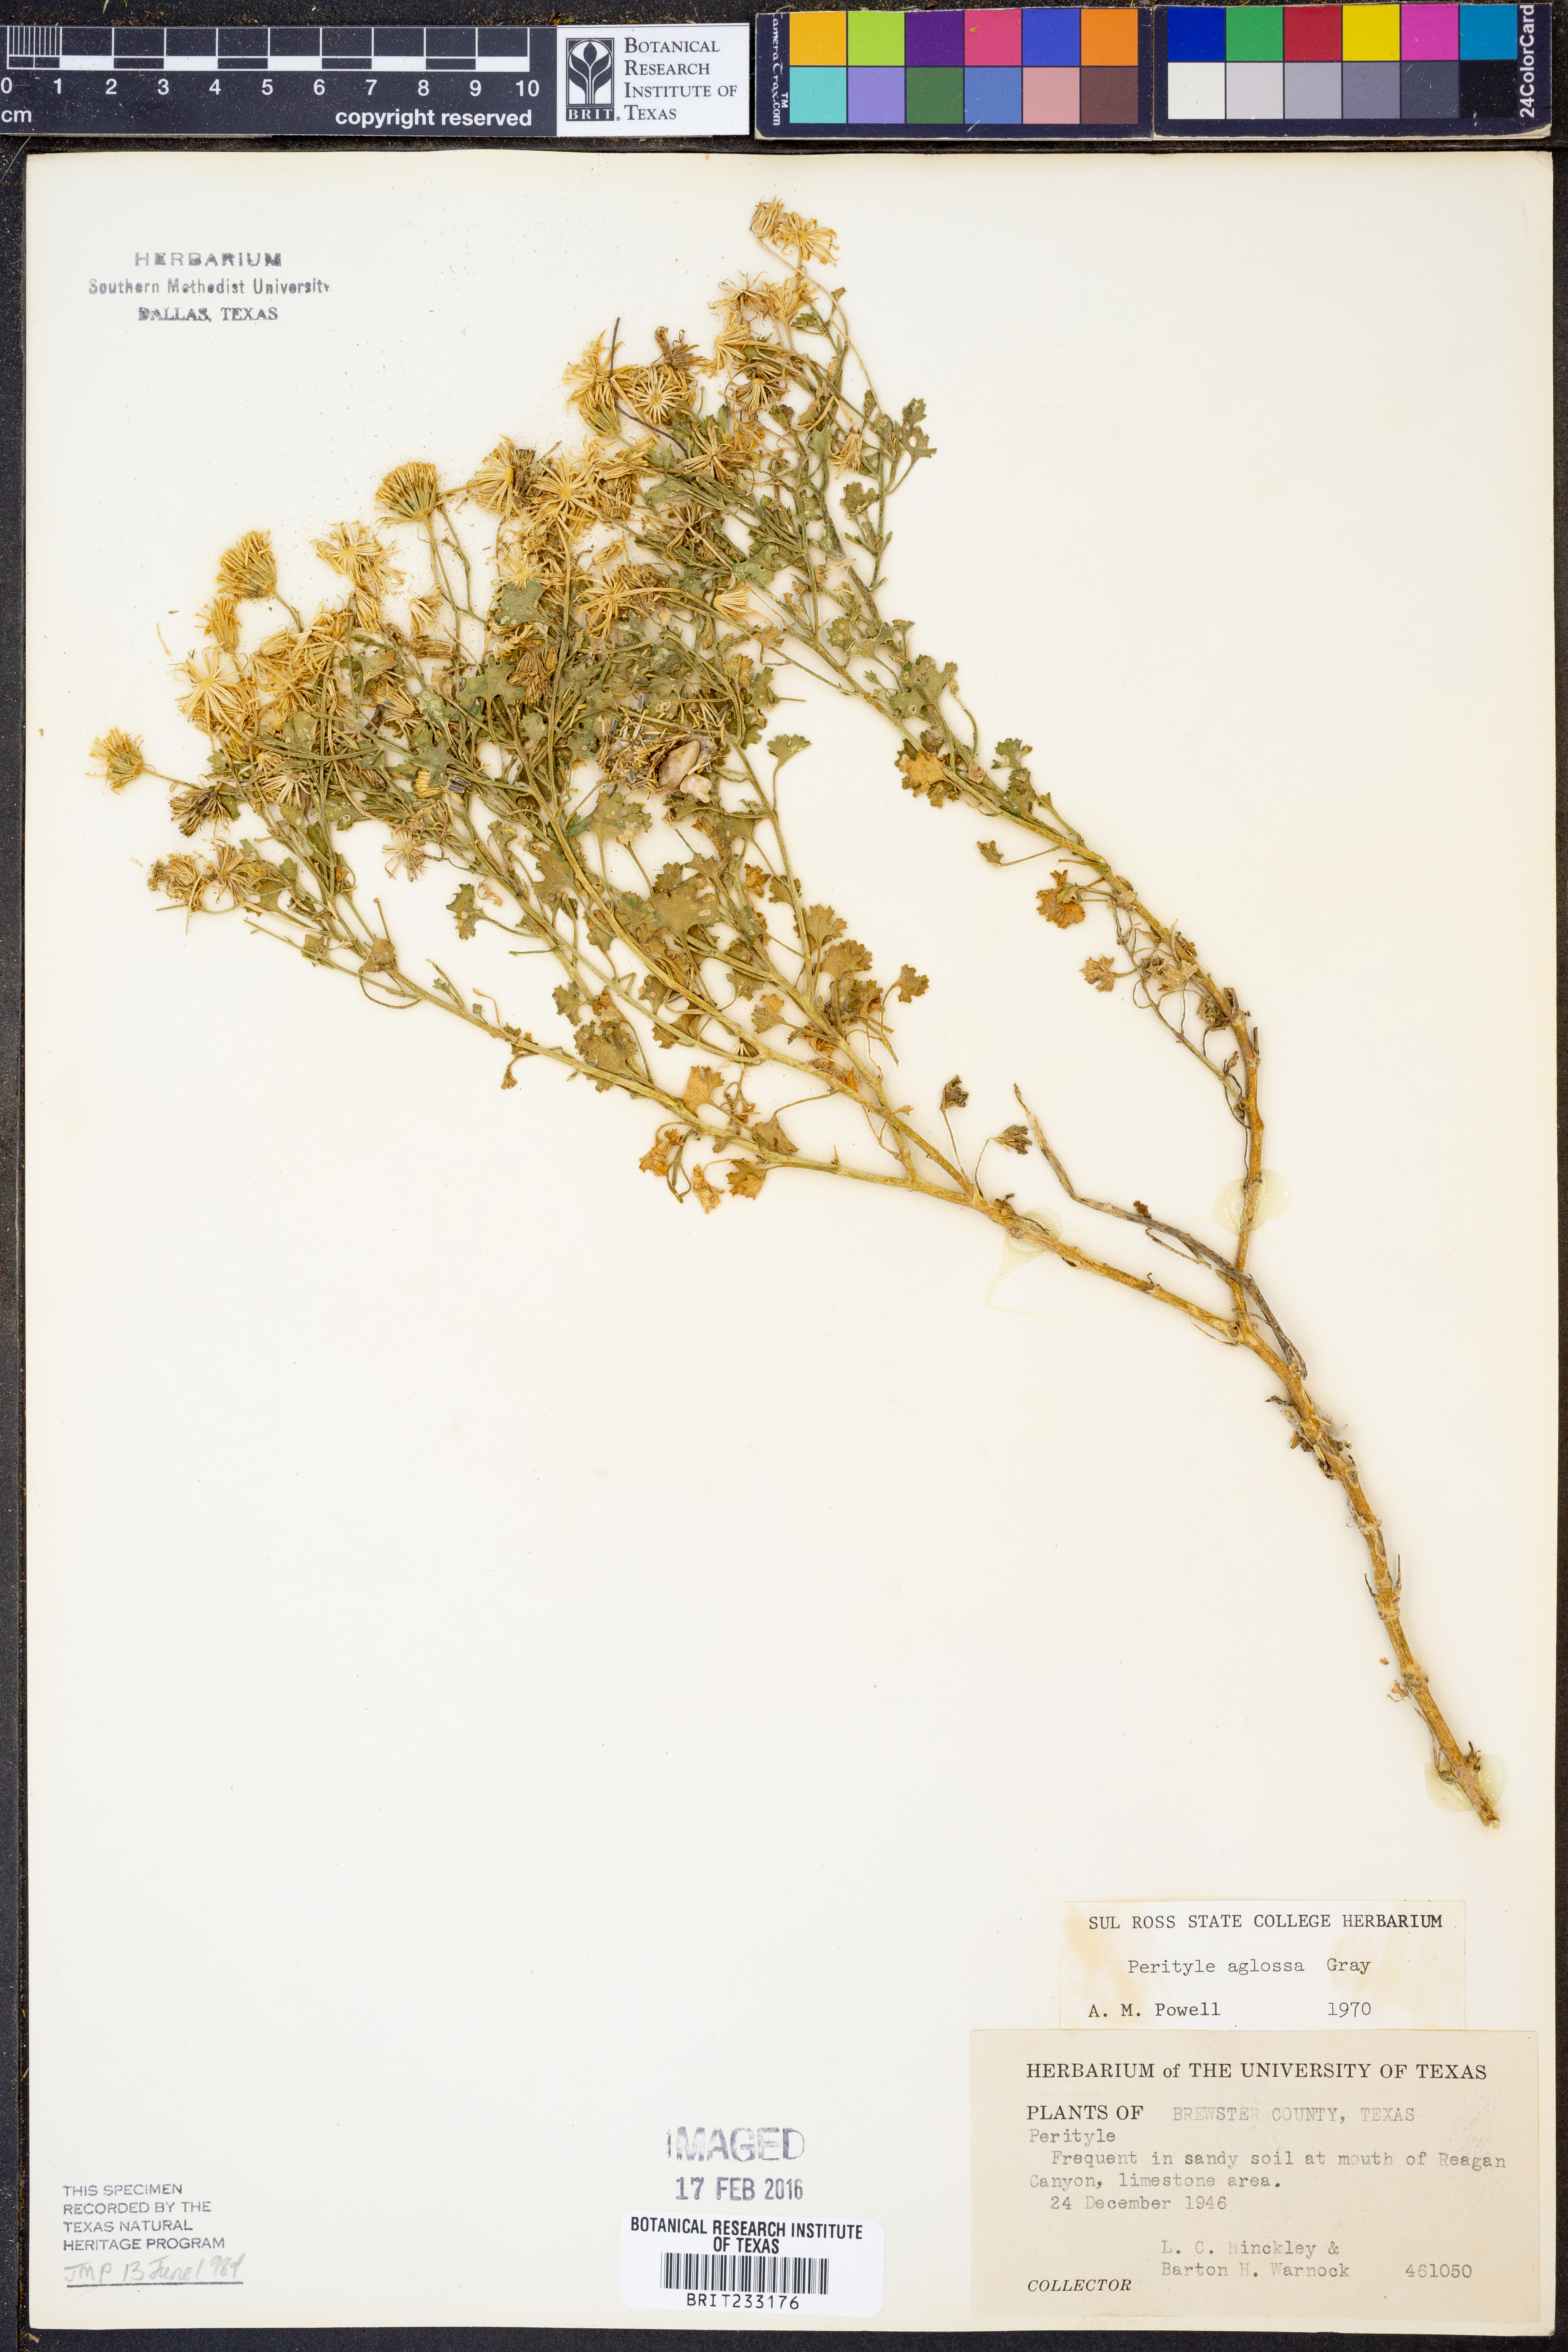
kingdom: Plantae
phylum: Tracheophyta
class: Magnoliopsida
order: Asterales
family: Asteraceae
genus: Laphamia
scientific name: Laphamia aglossa
